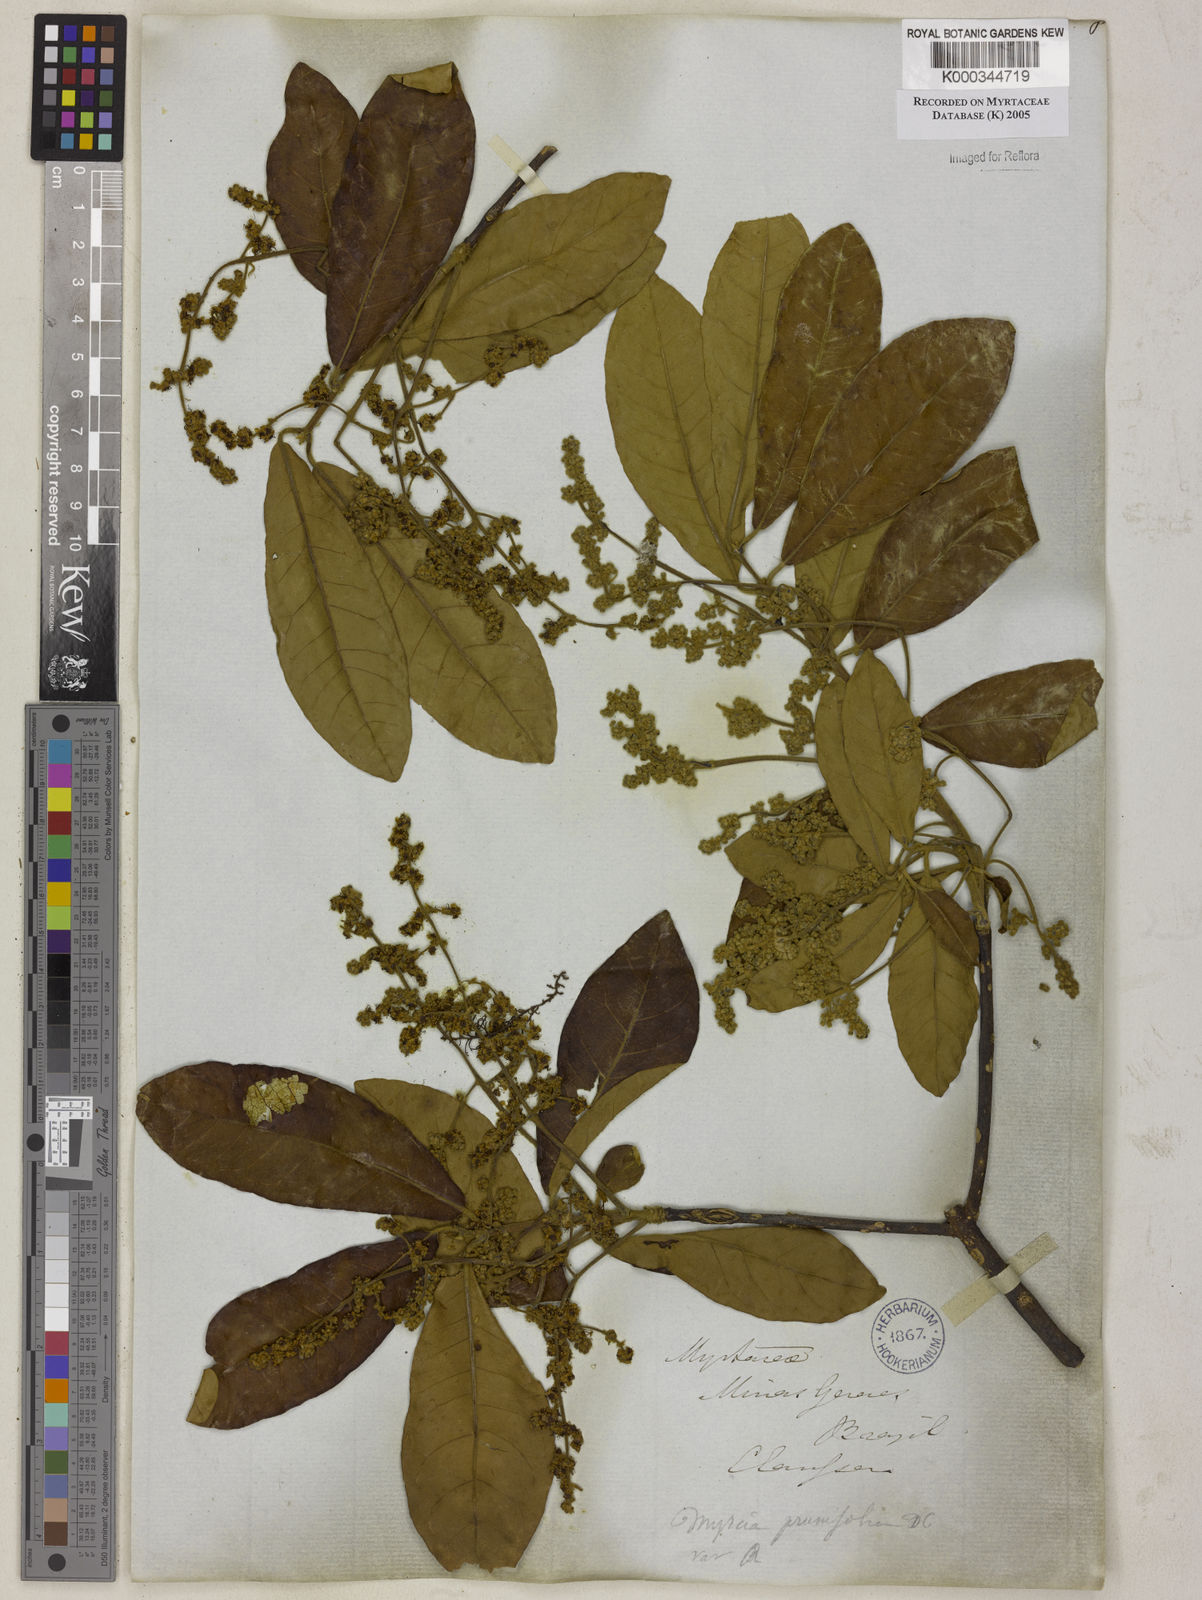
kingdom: Plantae
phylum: Tracheophyta
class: Magnoliopsida
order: Myrtales
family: Myrtaceae
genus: Myrcia
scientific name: Myrcia tomentosa
